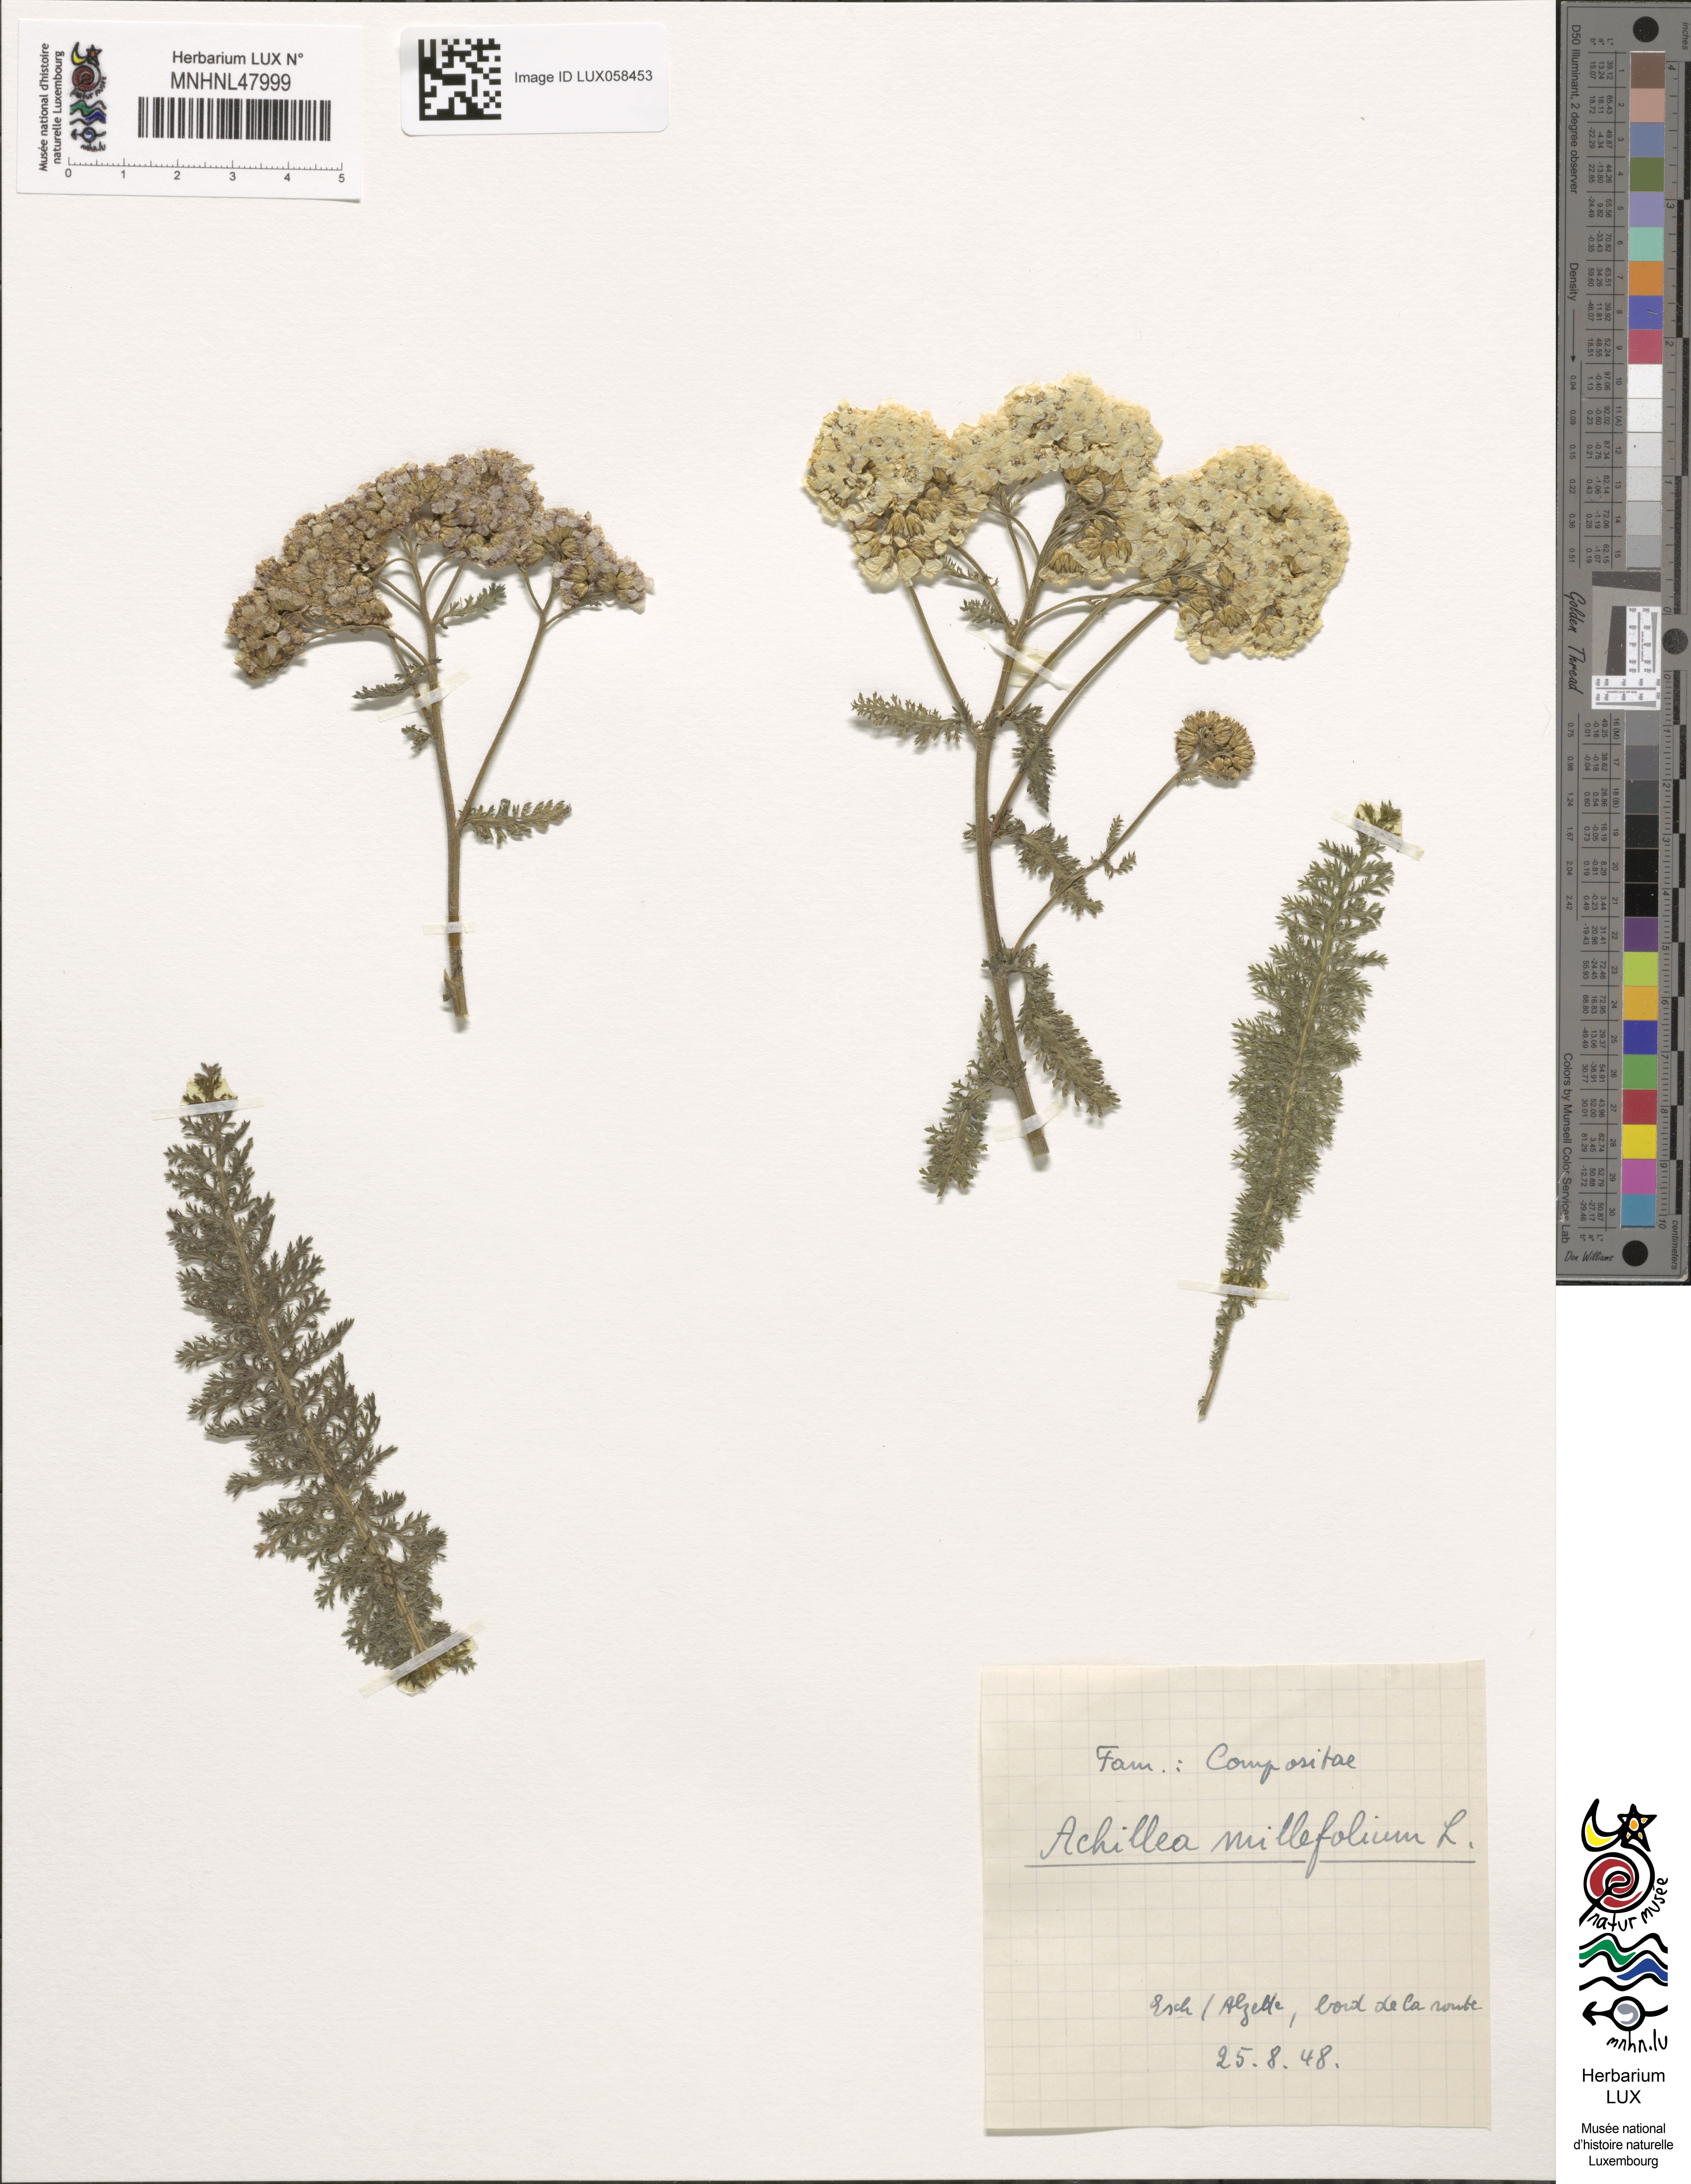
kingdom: Plantae
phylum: Tracheophyta
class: Magnoliopsida
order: Asterales
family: Asteraceae
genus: Achillea
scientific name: Achillea millefolium
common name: Yarrow
